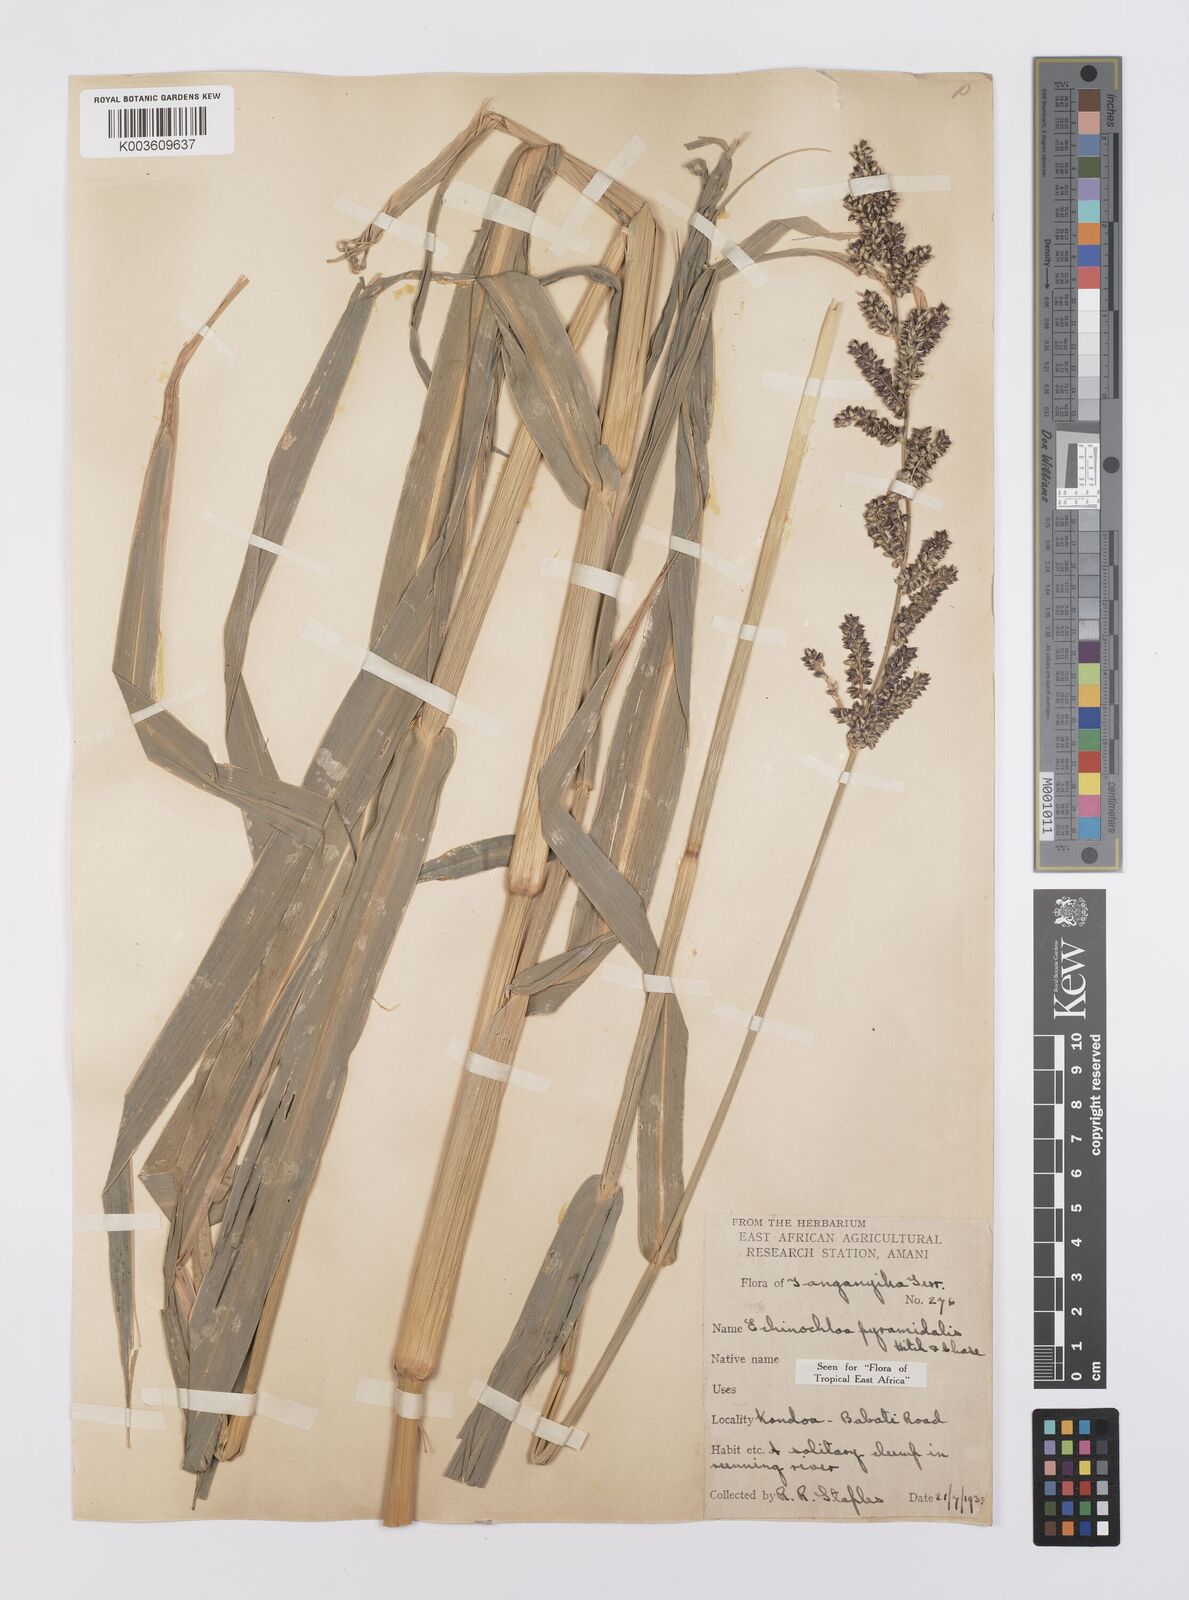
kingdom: Plantae
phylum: Tracheophyta
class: Liliopsida
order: Poales
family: Poaceae
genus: Echinochloa
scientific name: Echinochloa pyramidalis
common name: Antelope grass
